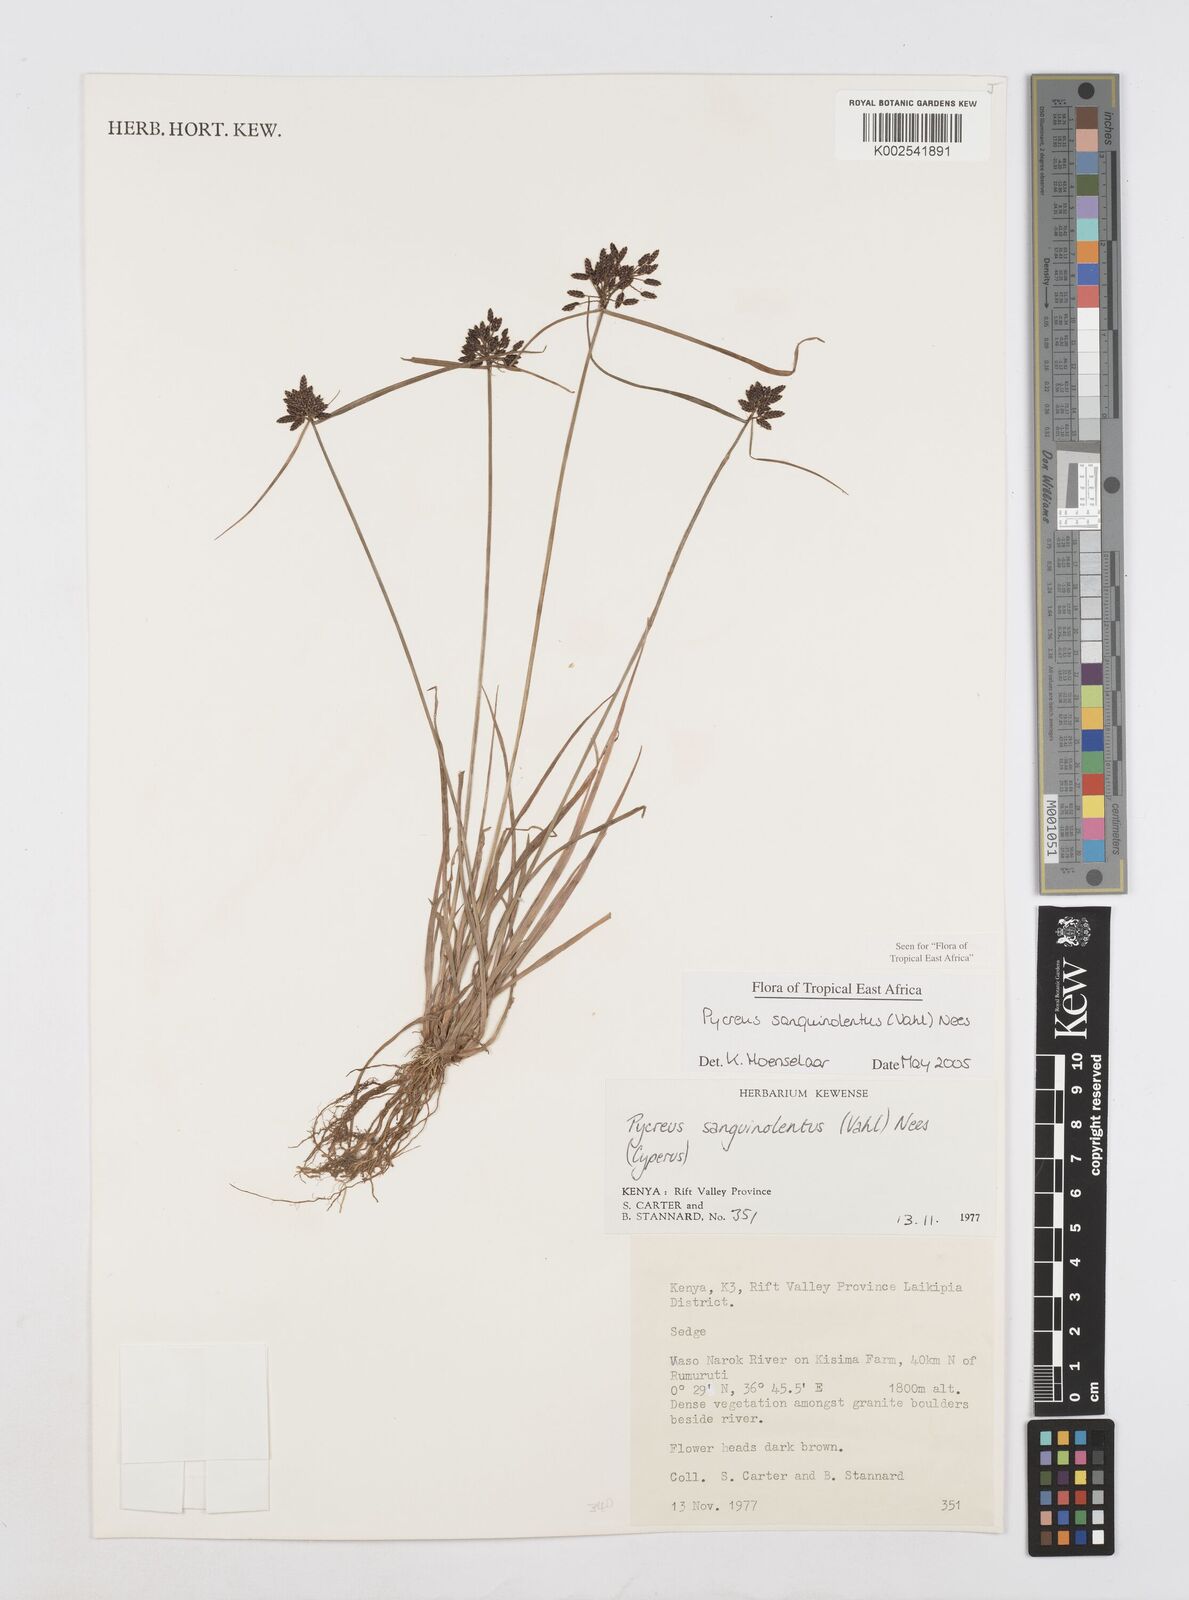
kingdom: Plantae
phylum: Tracheophyta
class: Liliopsida
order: Poales
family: Cyperaceae
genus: Cyperus
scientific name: Cyperus sanguinolentus
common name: Purpleglume flatsedge
